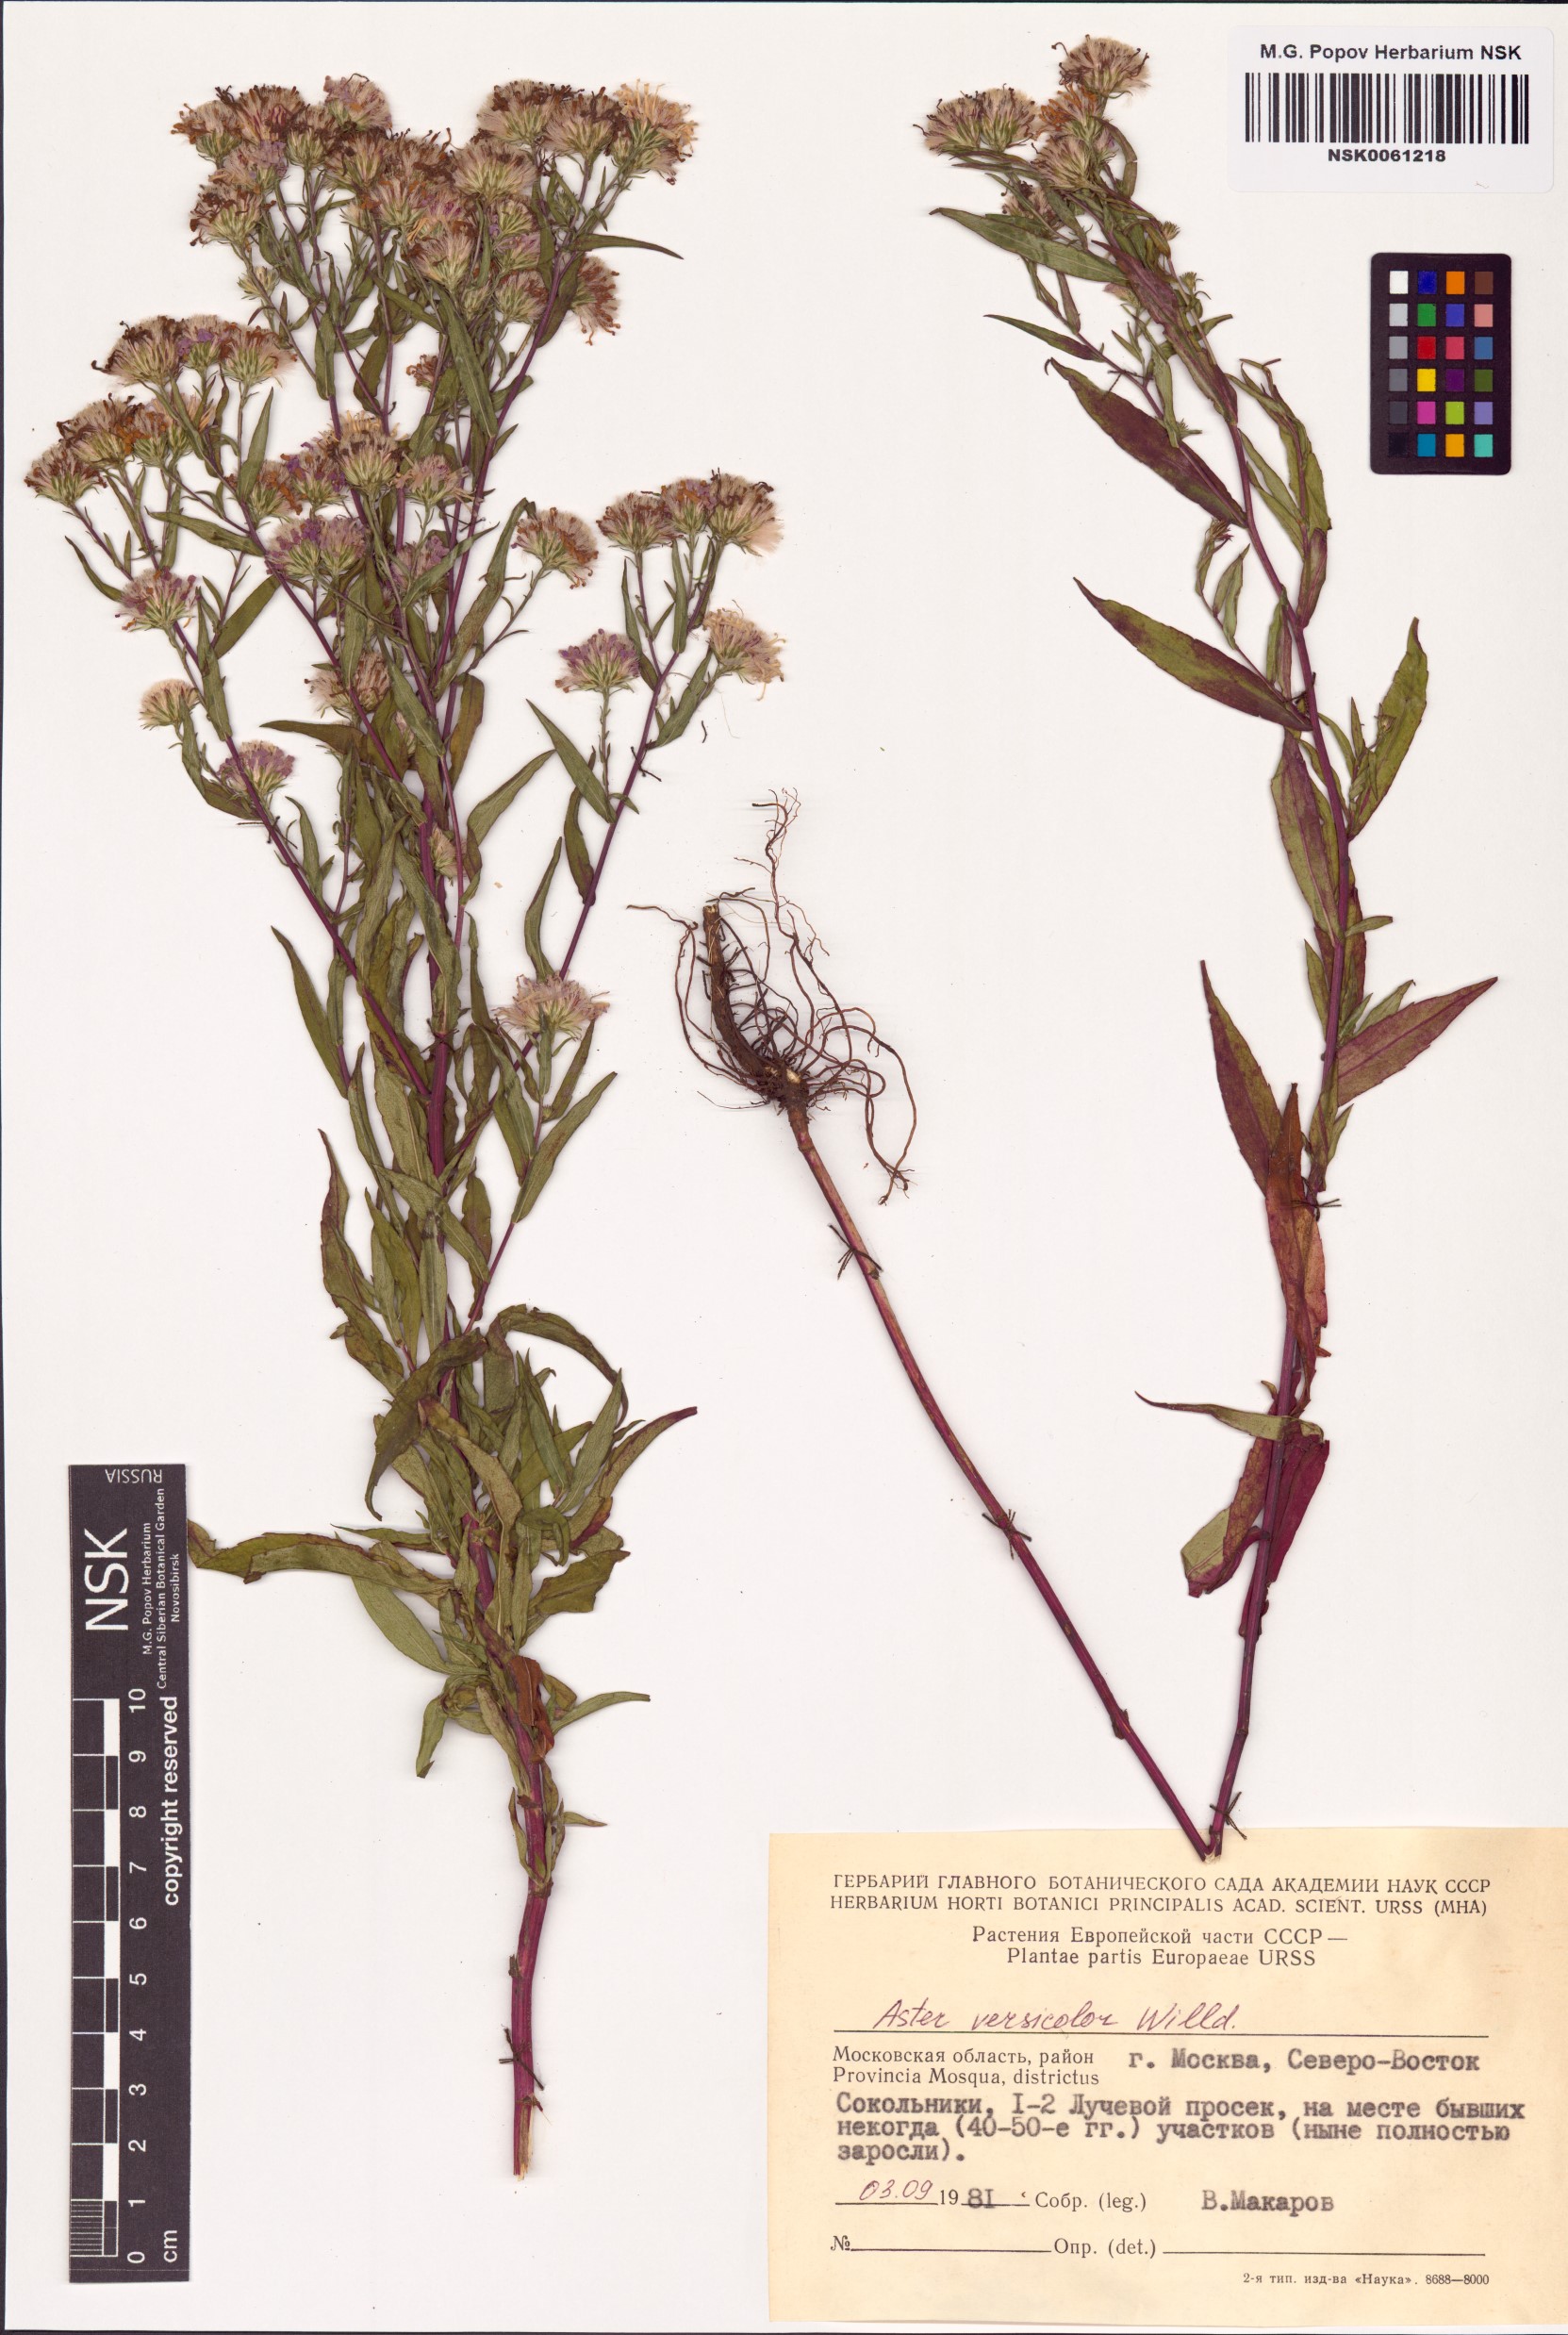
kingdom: Plantae
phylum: Tracheophyta
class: Magnoliopsida
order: Asterales
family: Asteraceae
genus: Symphyotrichum
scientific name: Symphyotrichum versicolor
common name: Late michaelmas daisy
